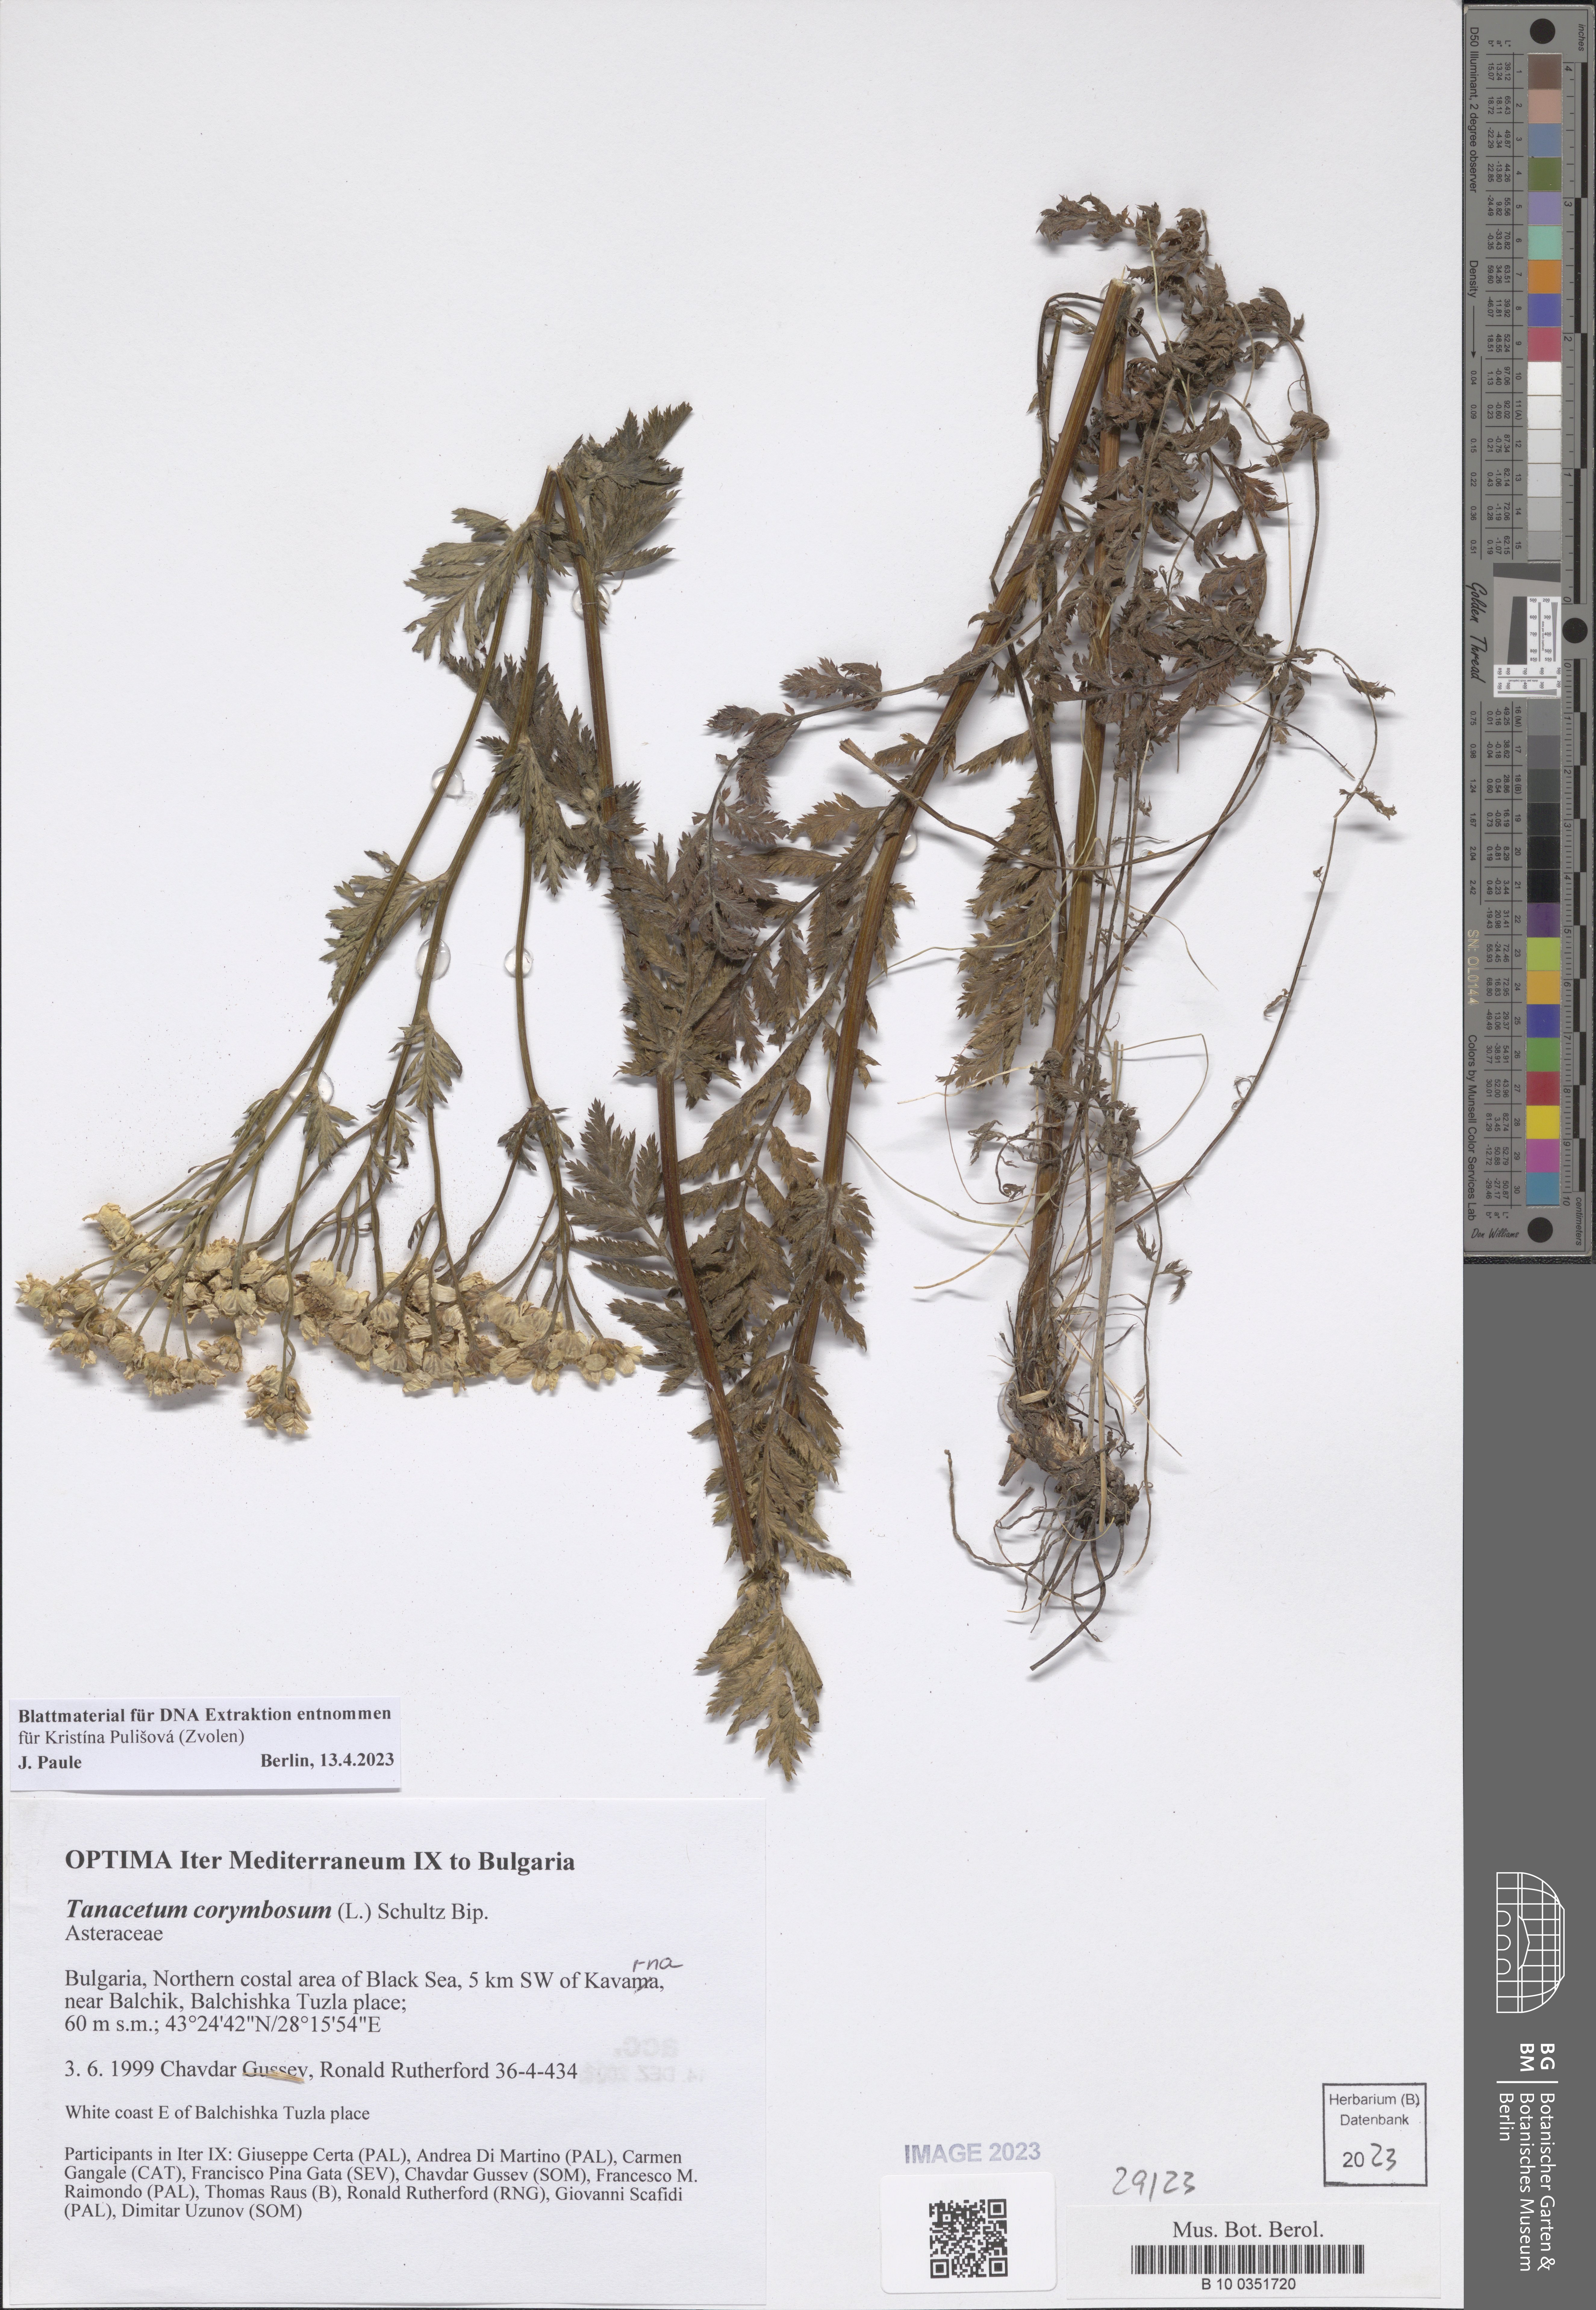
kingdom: Plantae
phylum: Tracheophyta
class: Magnoliopsida
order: Asterales
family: Asteraceae
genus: Tanacetum
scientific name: Tanacetum corymbosum
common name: Scentless feverfew
